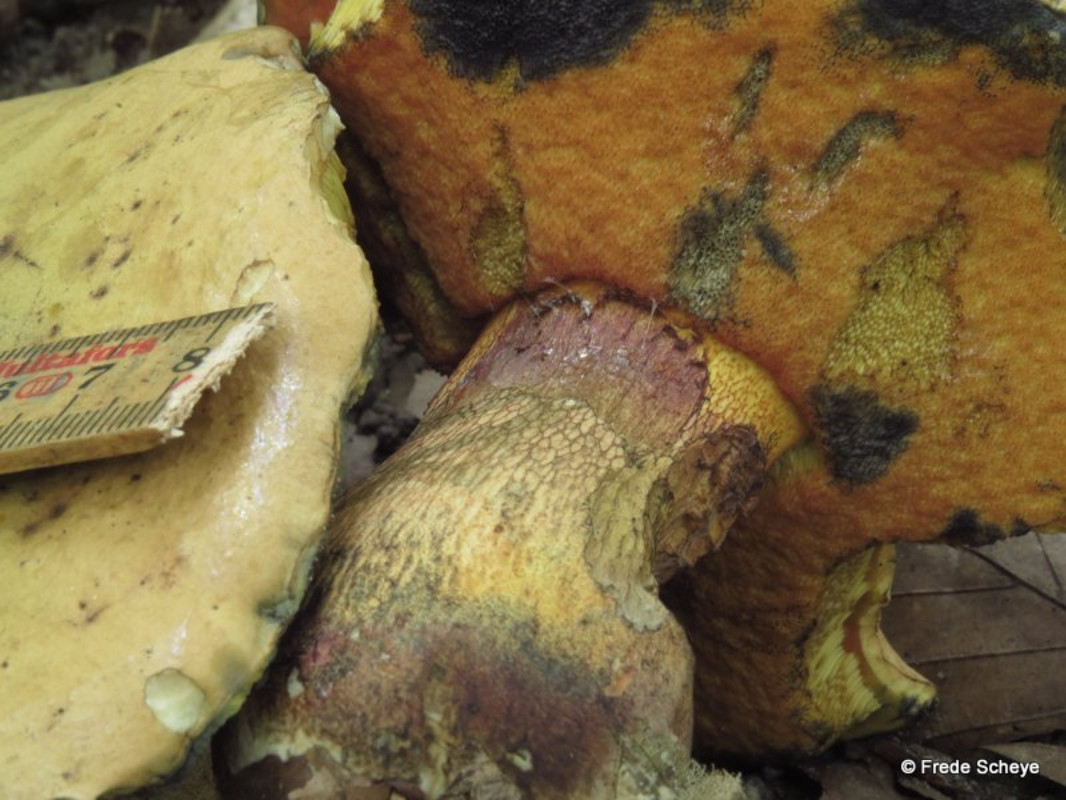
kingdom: Fungi
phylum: Basidiomycota
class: Agaricomycetes
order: Boletales
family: Boletaceae
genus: Suillellus
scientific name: Suillellus luridus
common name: netstokket indigorørhat
